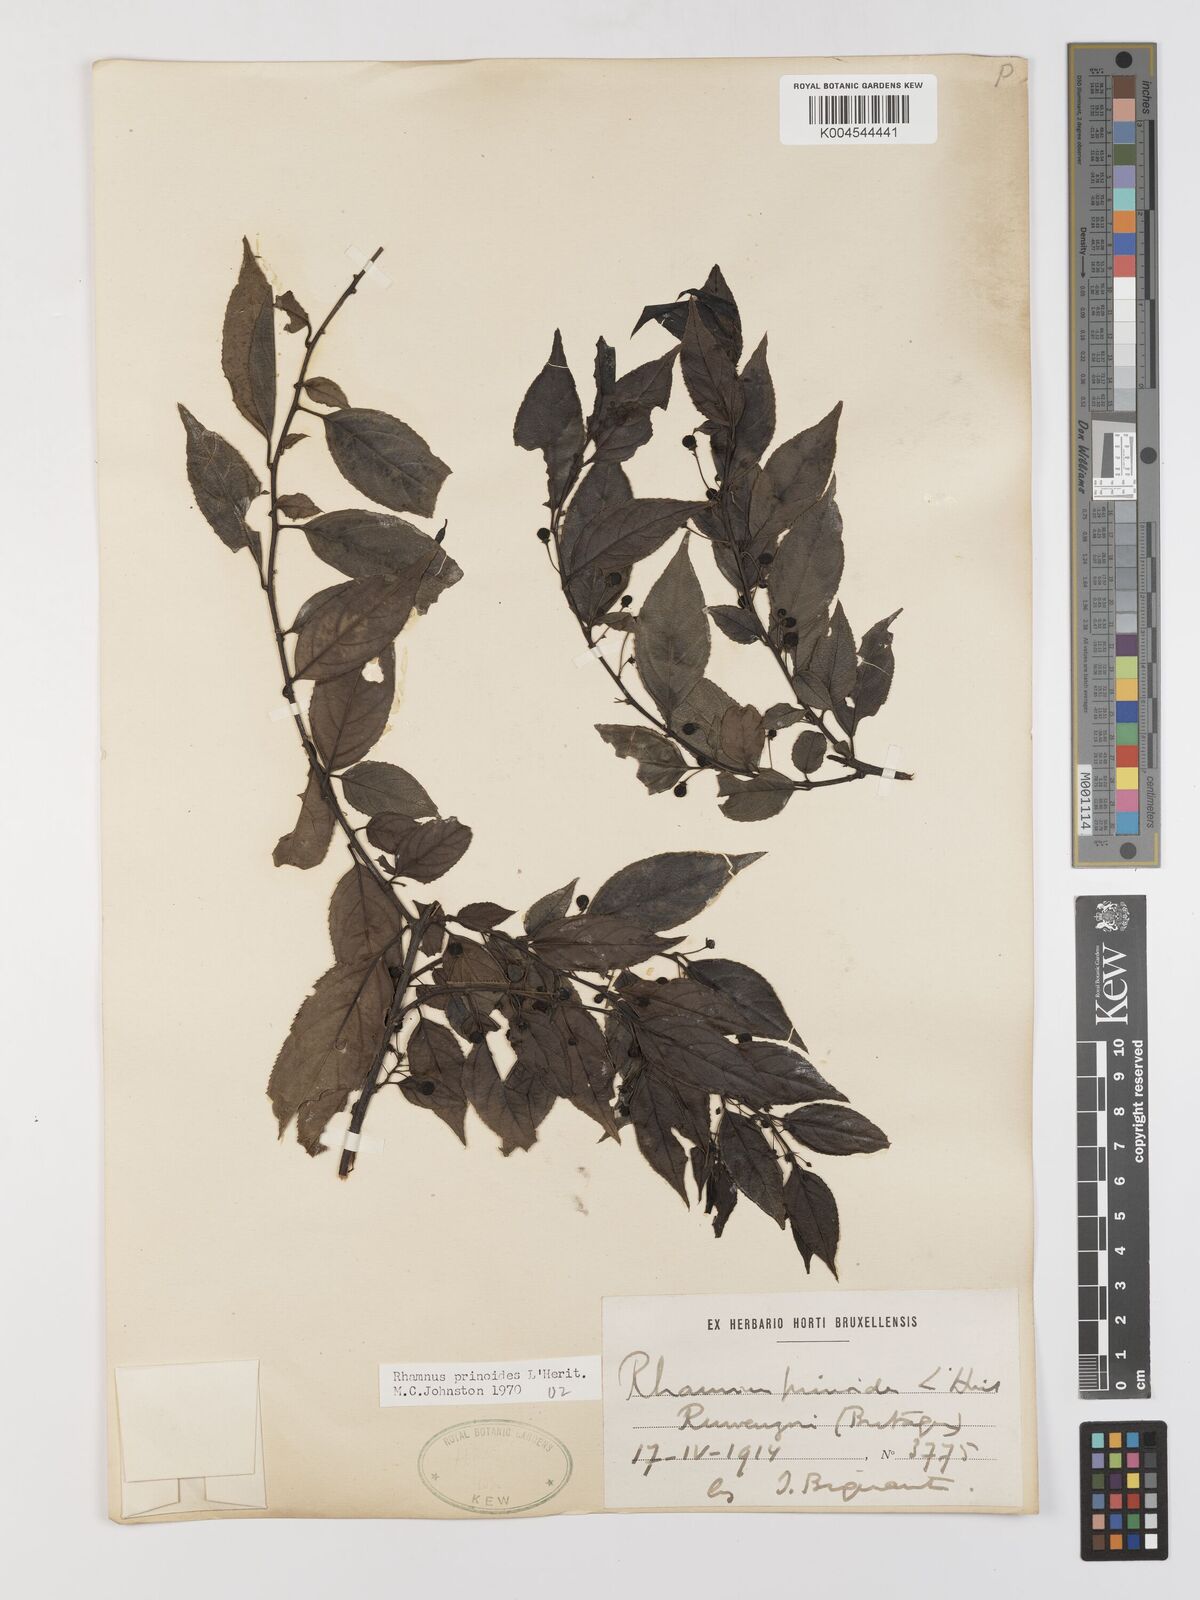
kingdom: Plantae
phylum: Tracheophyta
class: Magnoliopsida
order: Rosales
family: Rhamnaceae
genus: Rhamnus
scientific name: Rhamnus prinoides
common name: Dogwood
